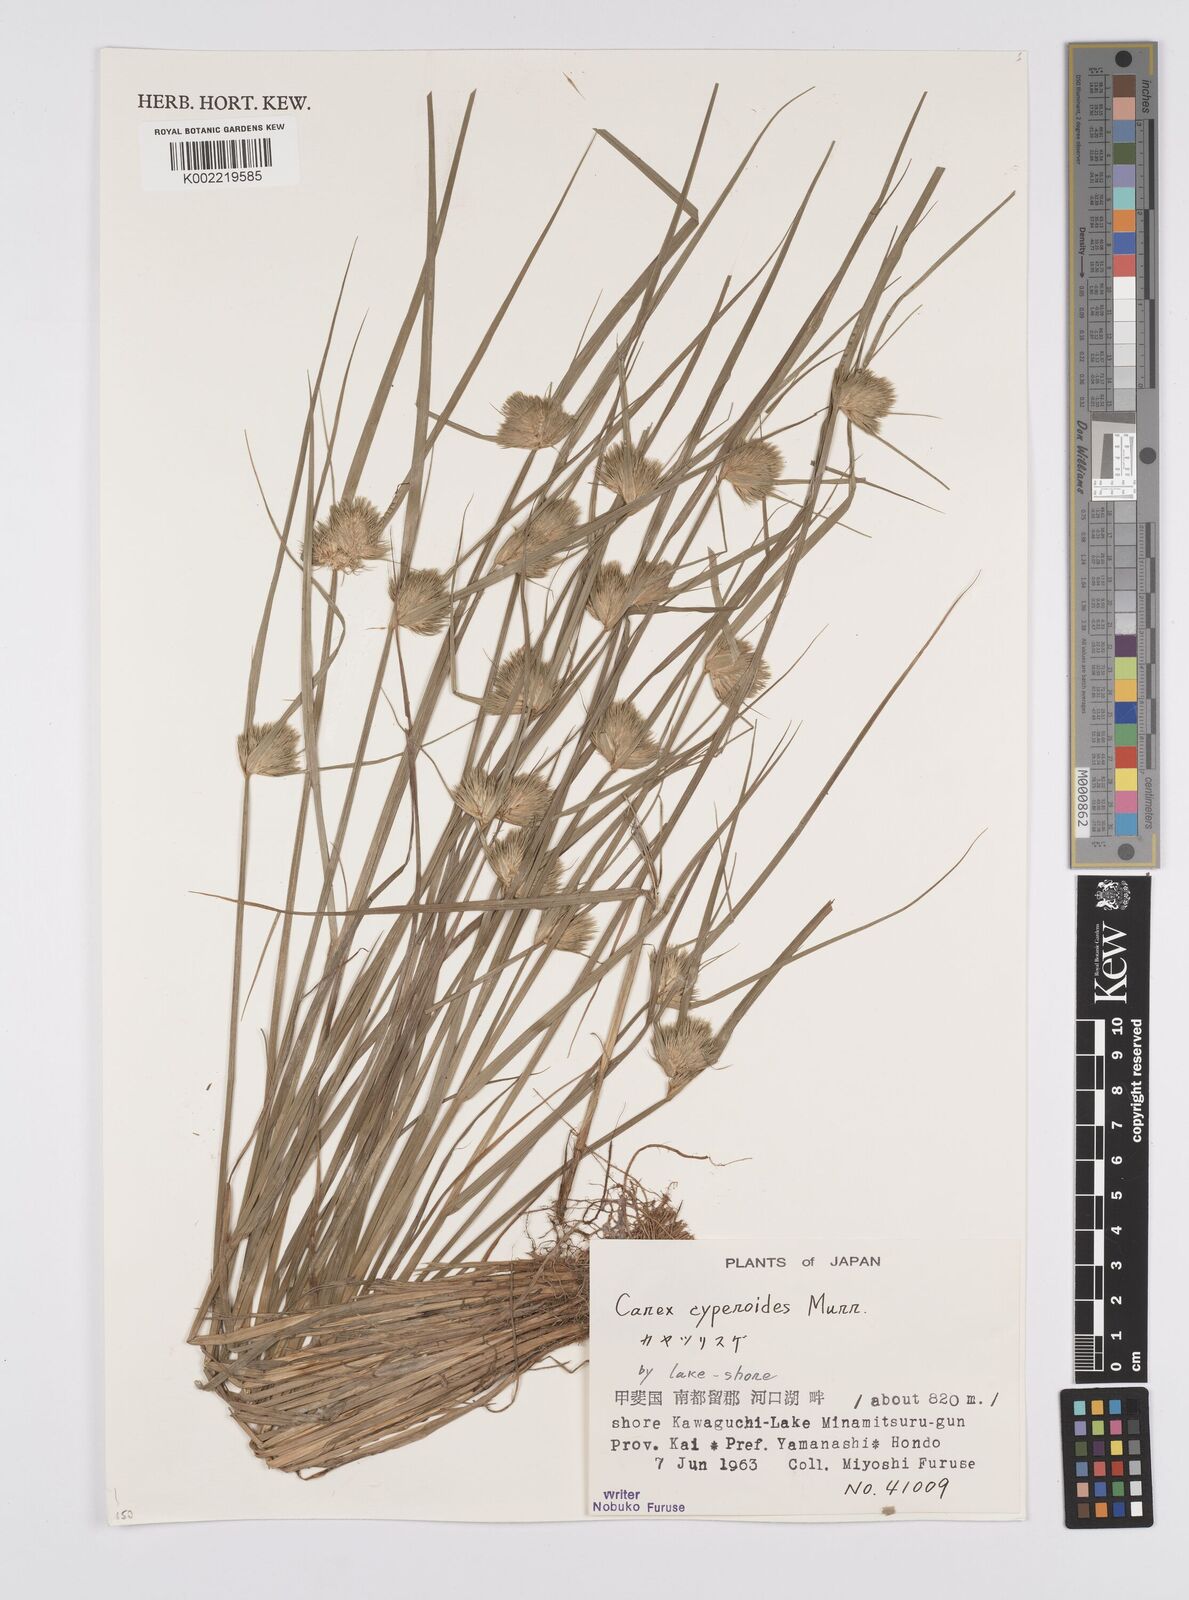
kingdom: Plantae
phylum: Tracheophyta
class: Liliopsida
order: Poales
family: Cyperaceae
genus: Carex
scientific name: Carex bohemica
